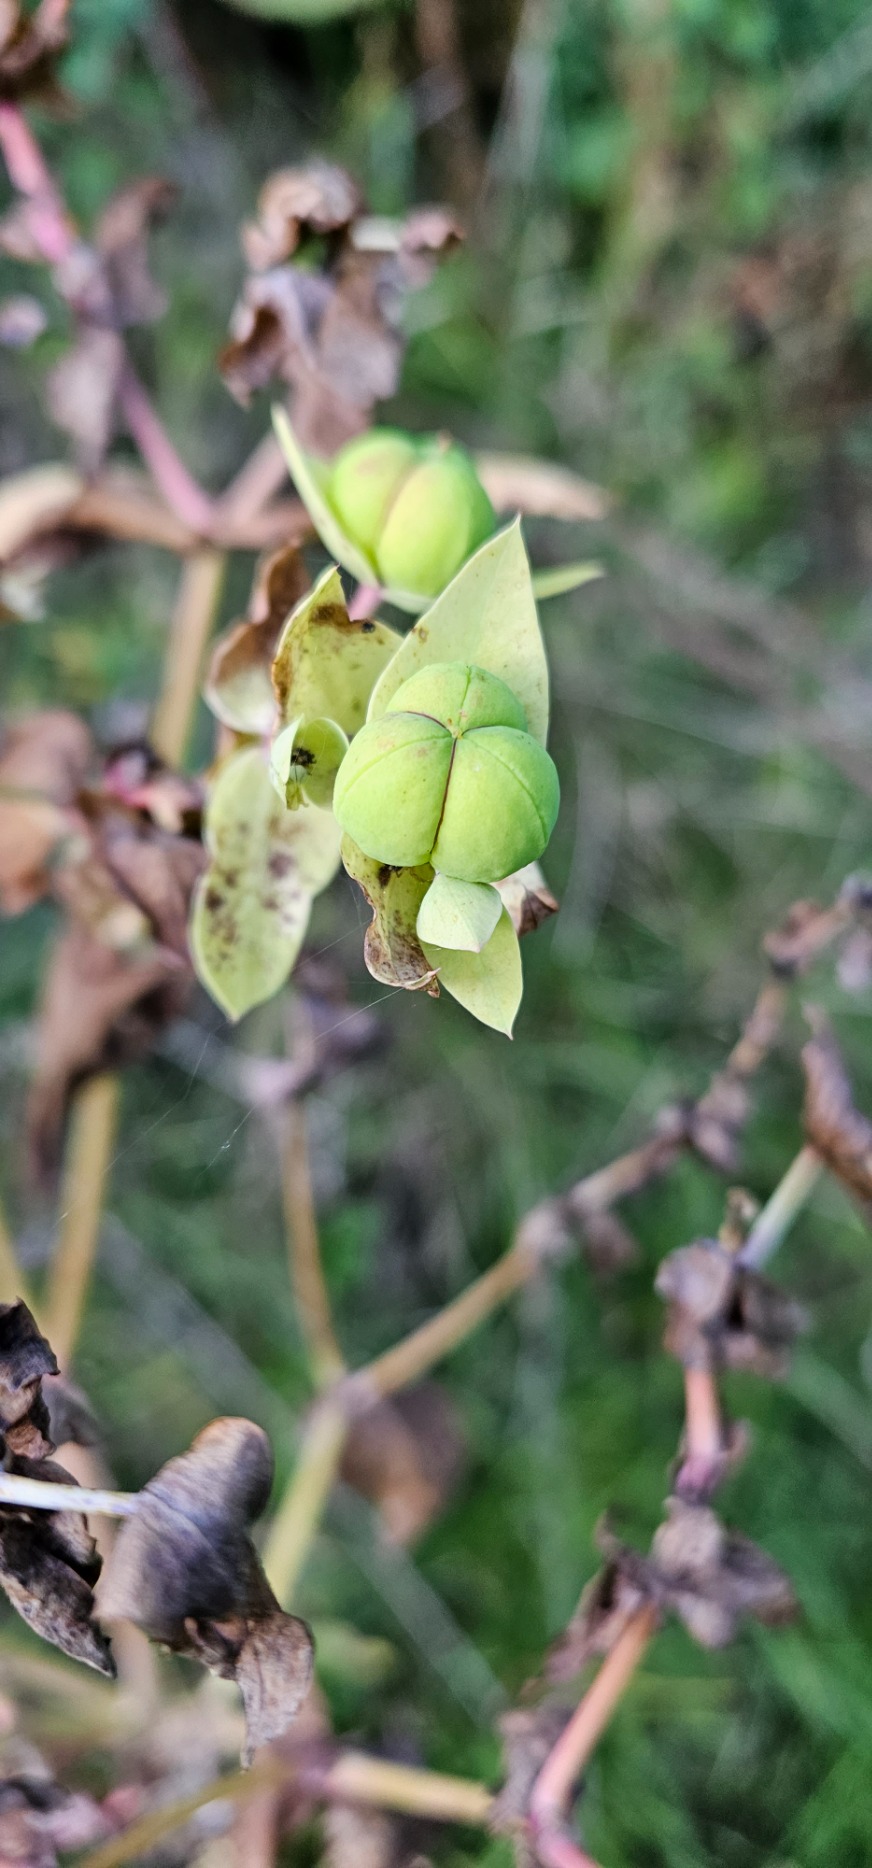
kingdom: Plantae
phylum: Tracheophyta
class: Magnoliopsida
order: Malpighiales
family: Euphorbiaceae
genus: Euphorbia
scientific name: Euphorbia lathyris
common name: Kors-vortemælk
